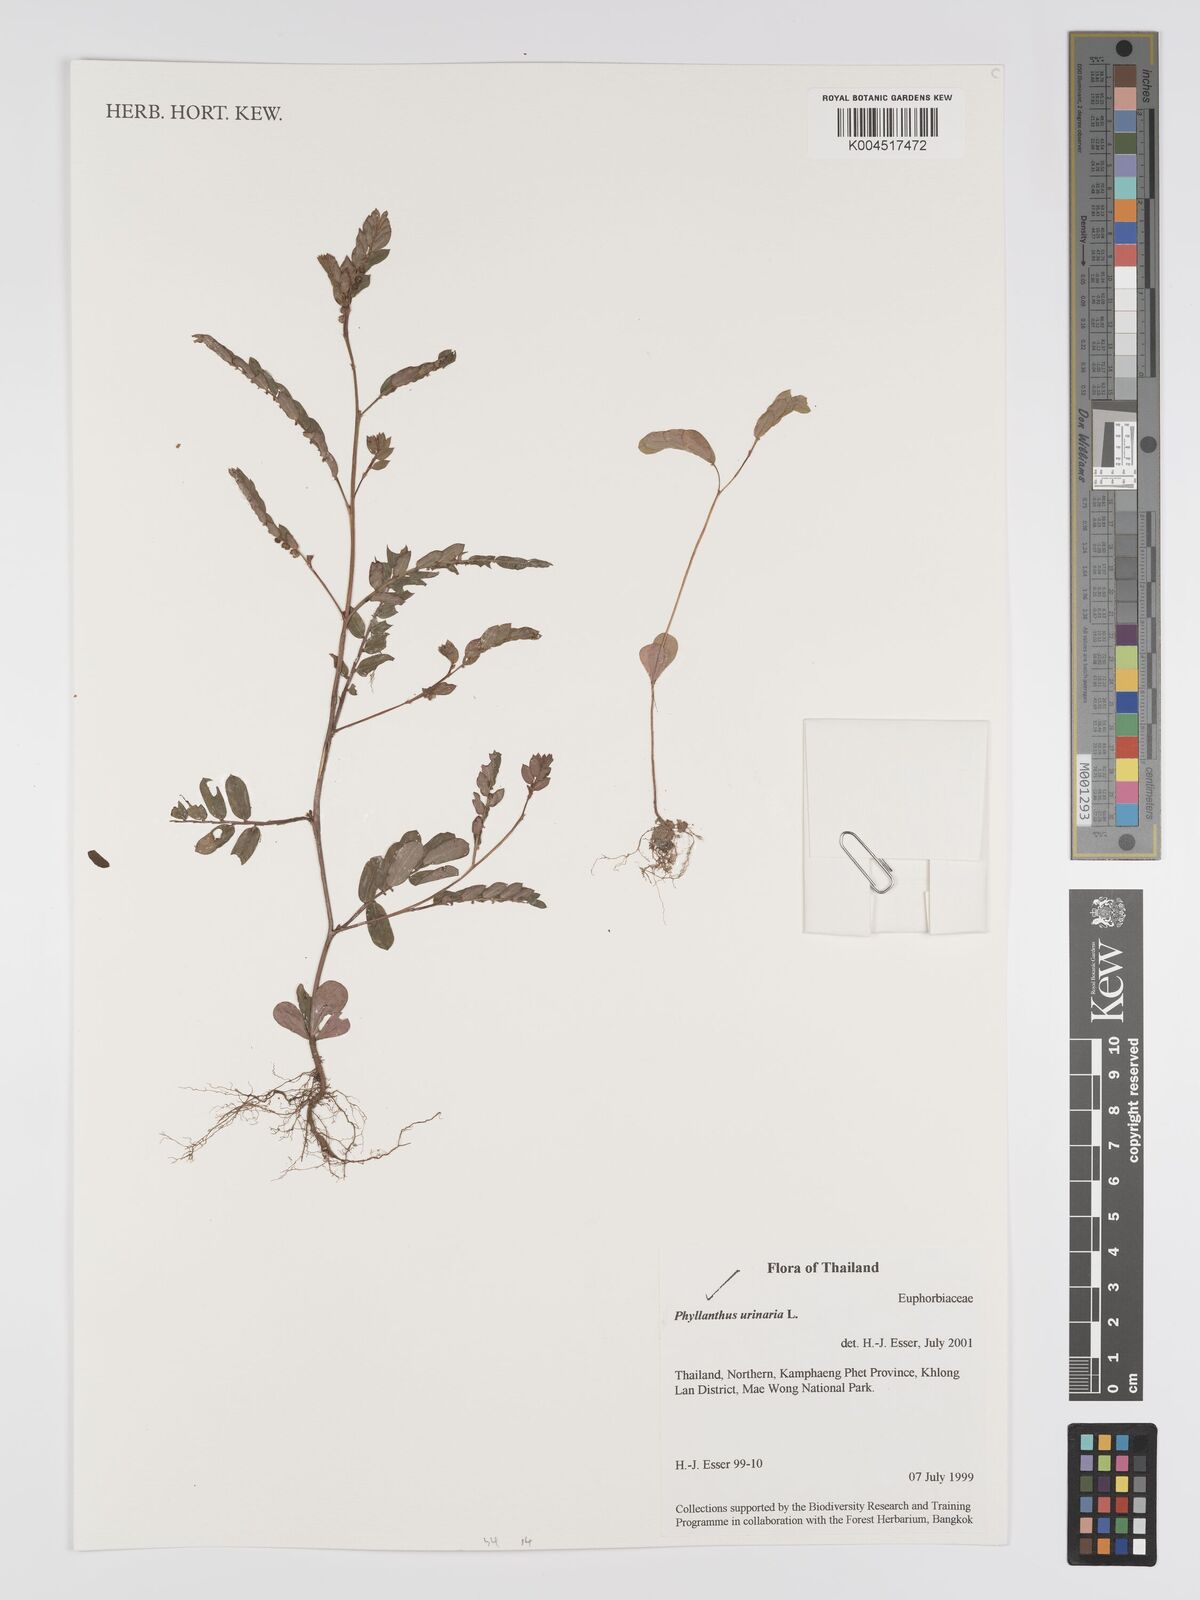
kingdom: Plantae
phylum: Tracheophyta
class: Magnoliopsida
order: Malpighiales
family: Phyllanthaceae
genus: Phyllanthus
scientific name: Phyllanthus urinaria
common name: Chamber bitter
